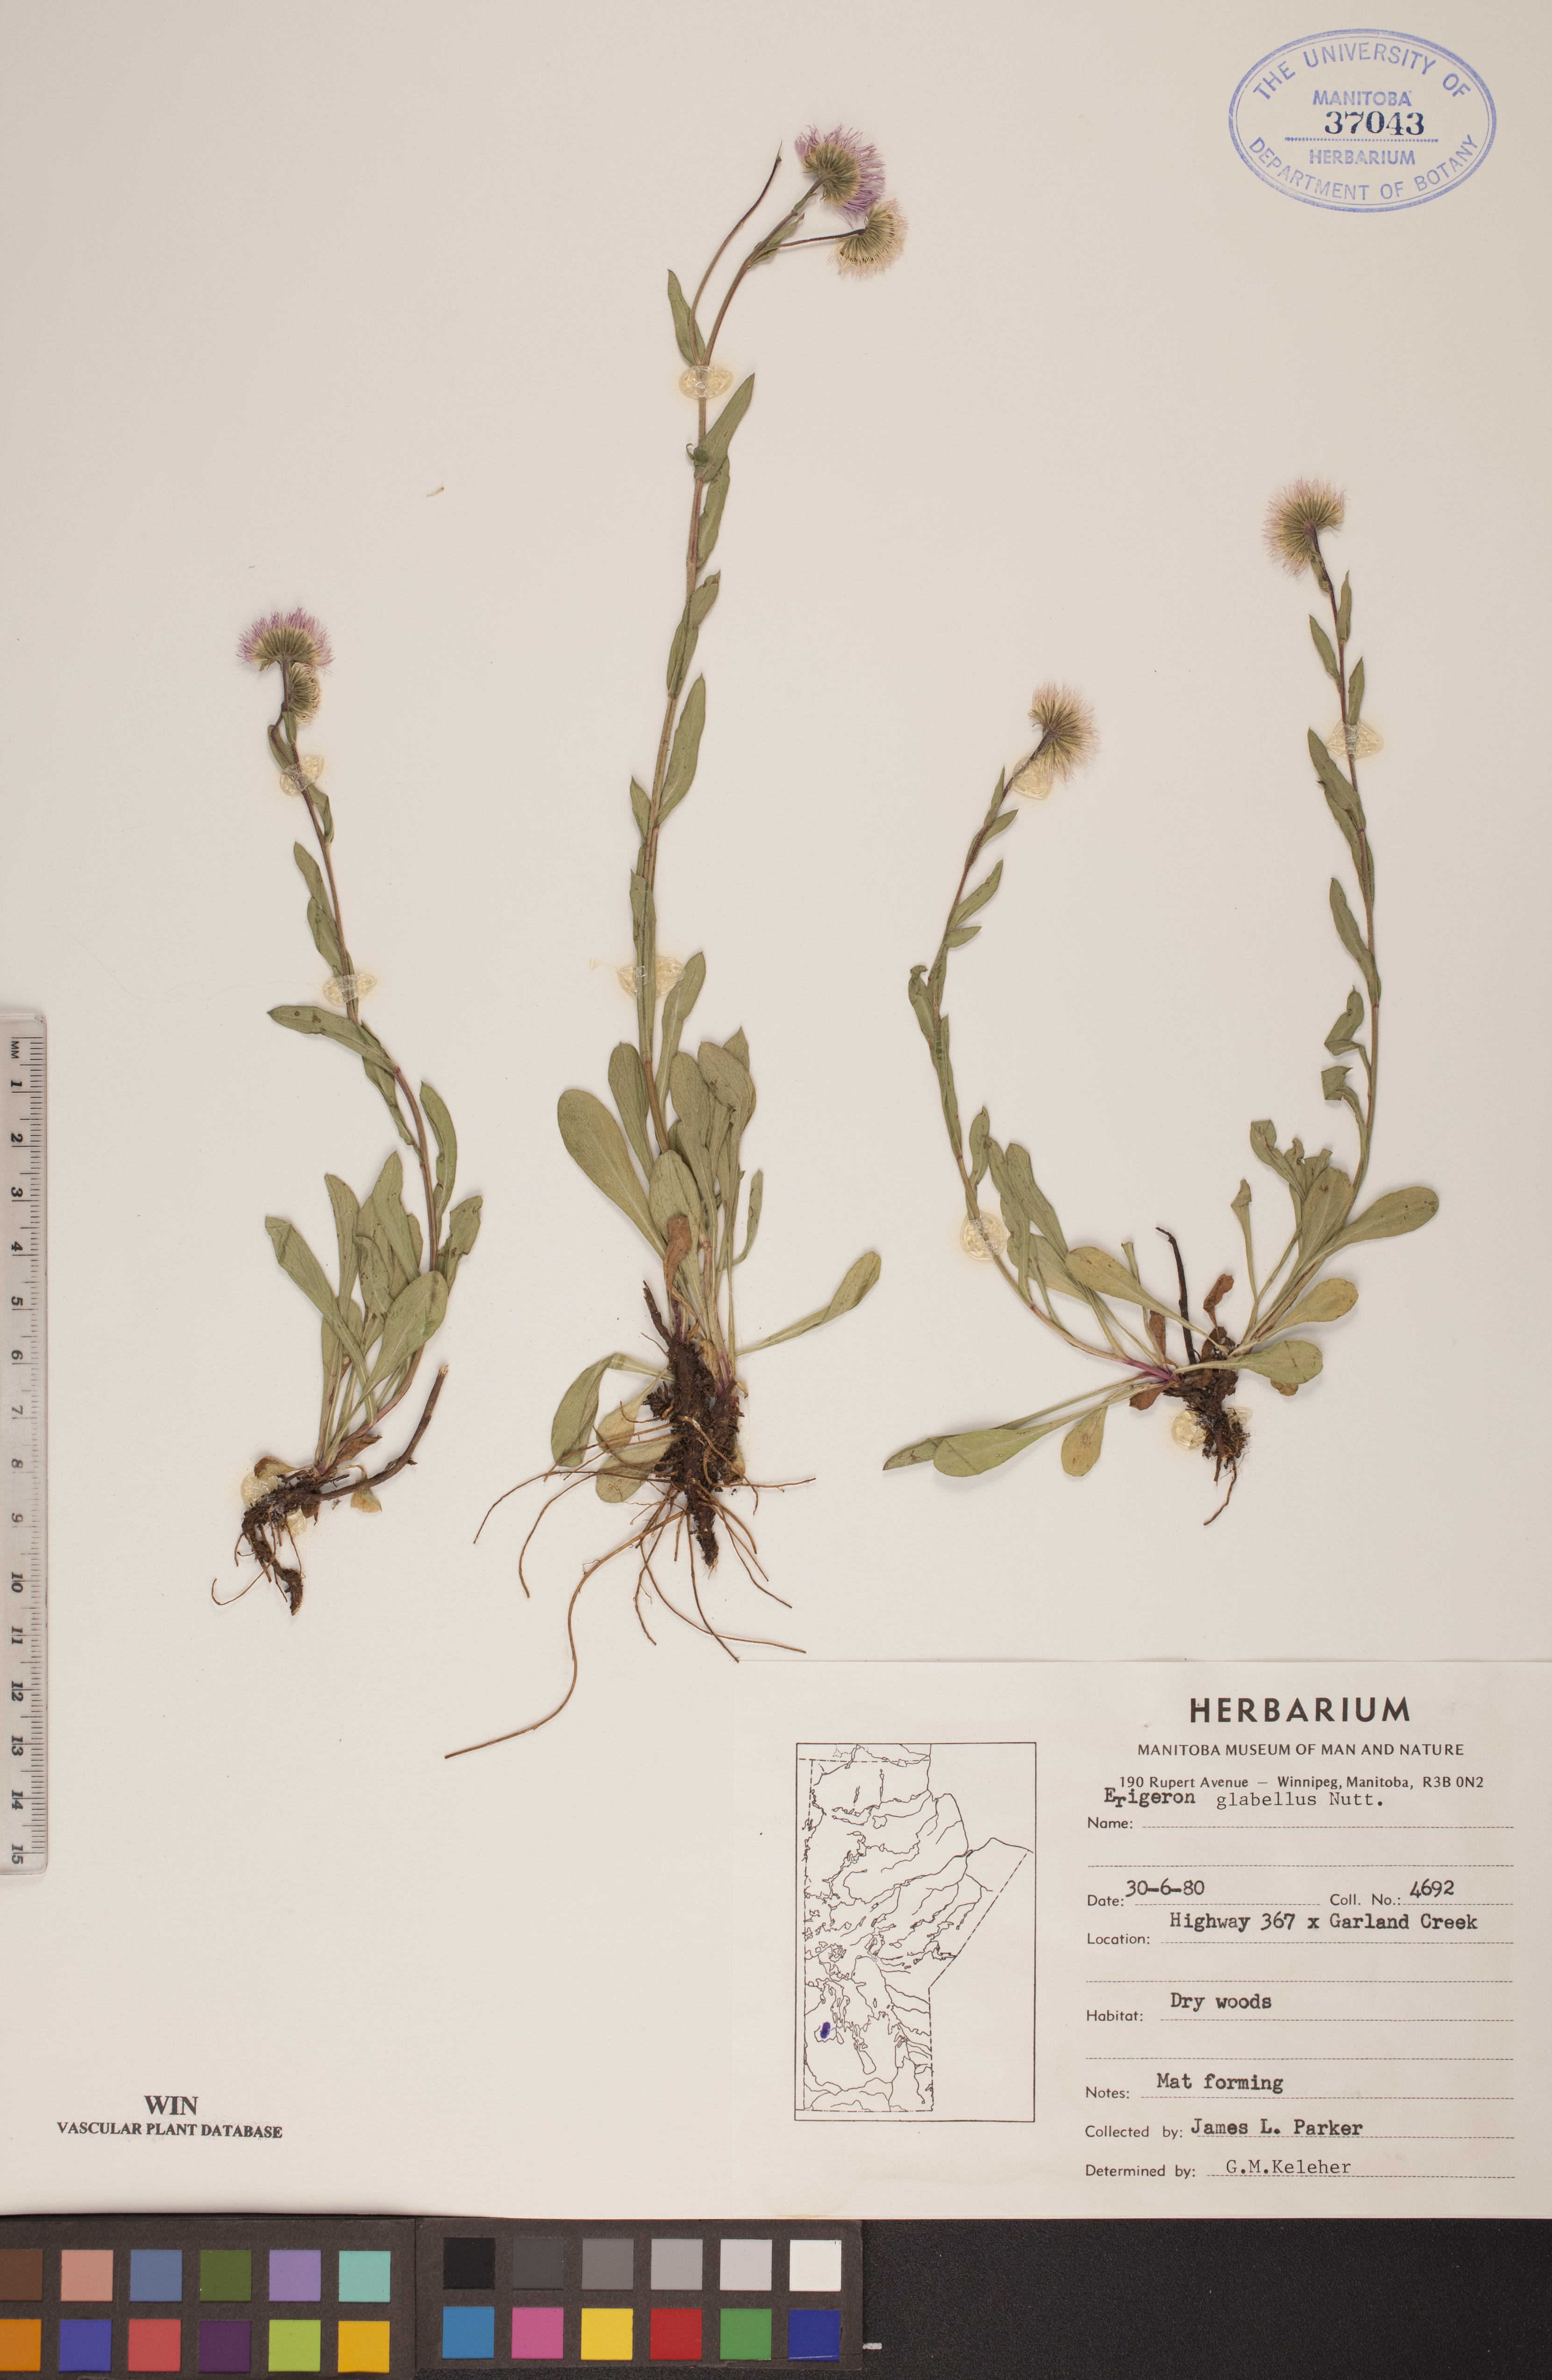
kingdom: Plantae
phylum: Tracheophyta
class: Magnoliopsida
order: Asterales
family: Asteraceae
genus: Erigeron
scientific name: Erigeron glabellus
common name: Smooth fleabane
